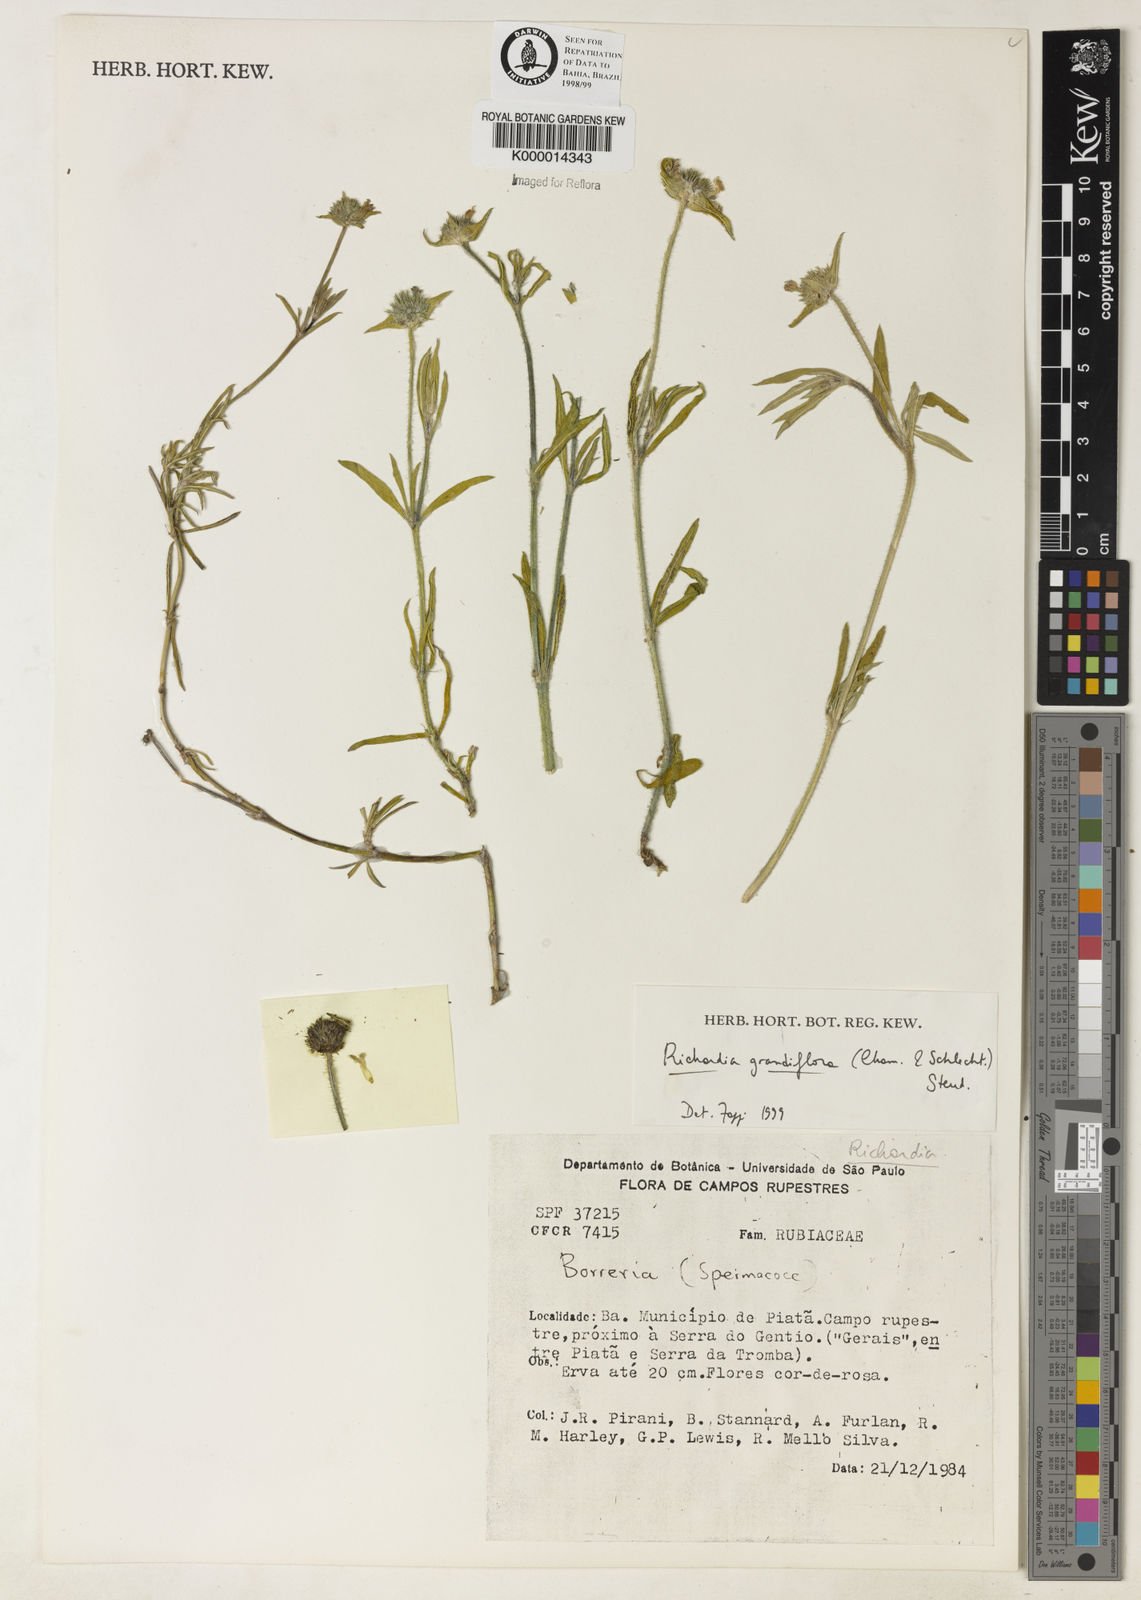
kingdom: Plantae
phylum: Tracheophyta
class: Magnoliopsida
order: Gentianales
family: Rubiaceae
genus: Richardia
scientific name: Richardia grandiflora
